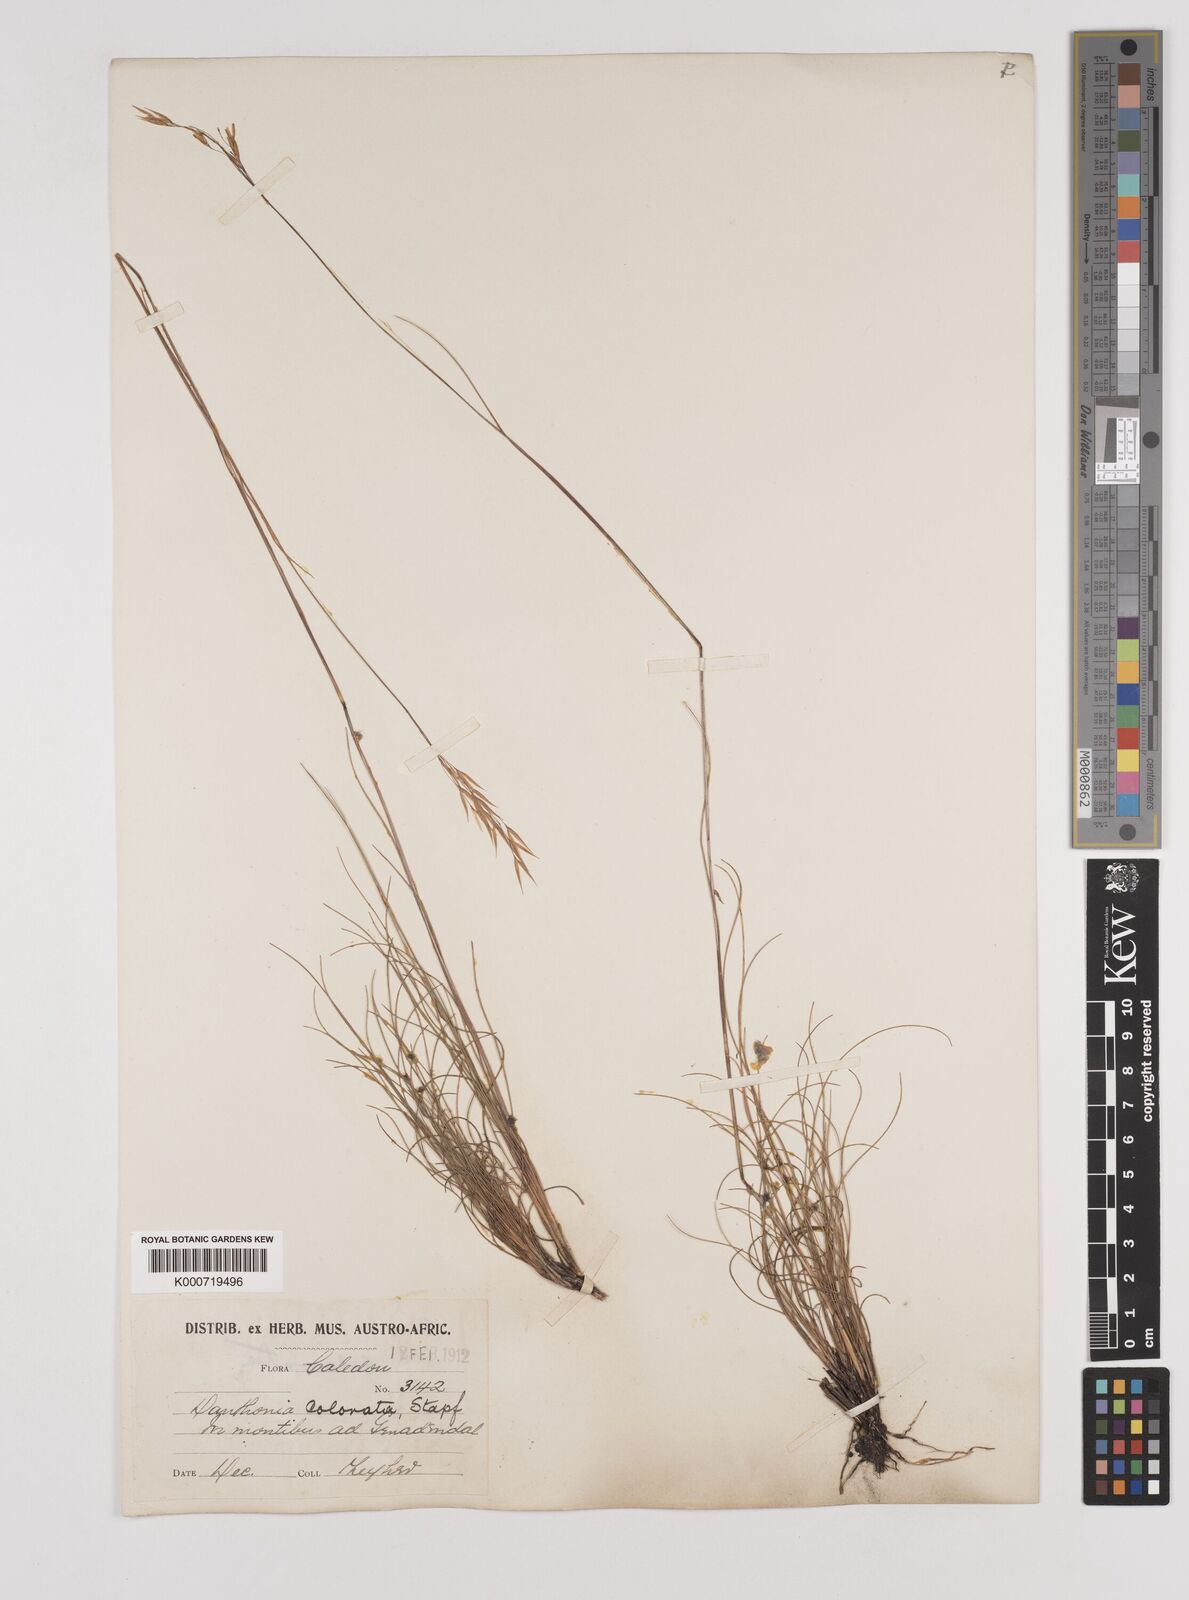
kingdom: Plantae
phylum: Tracheophyta
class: Liliopsida
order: Poales
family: Poaceae
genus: Pentameris
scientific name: Pentameris colorata
